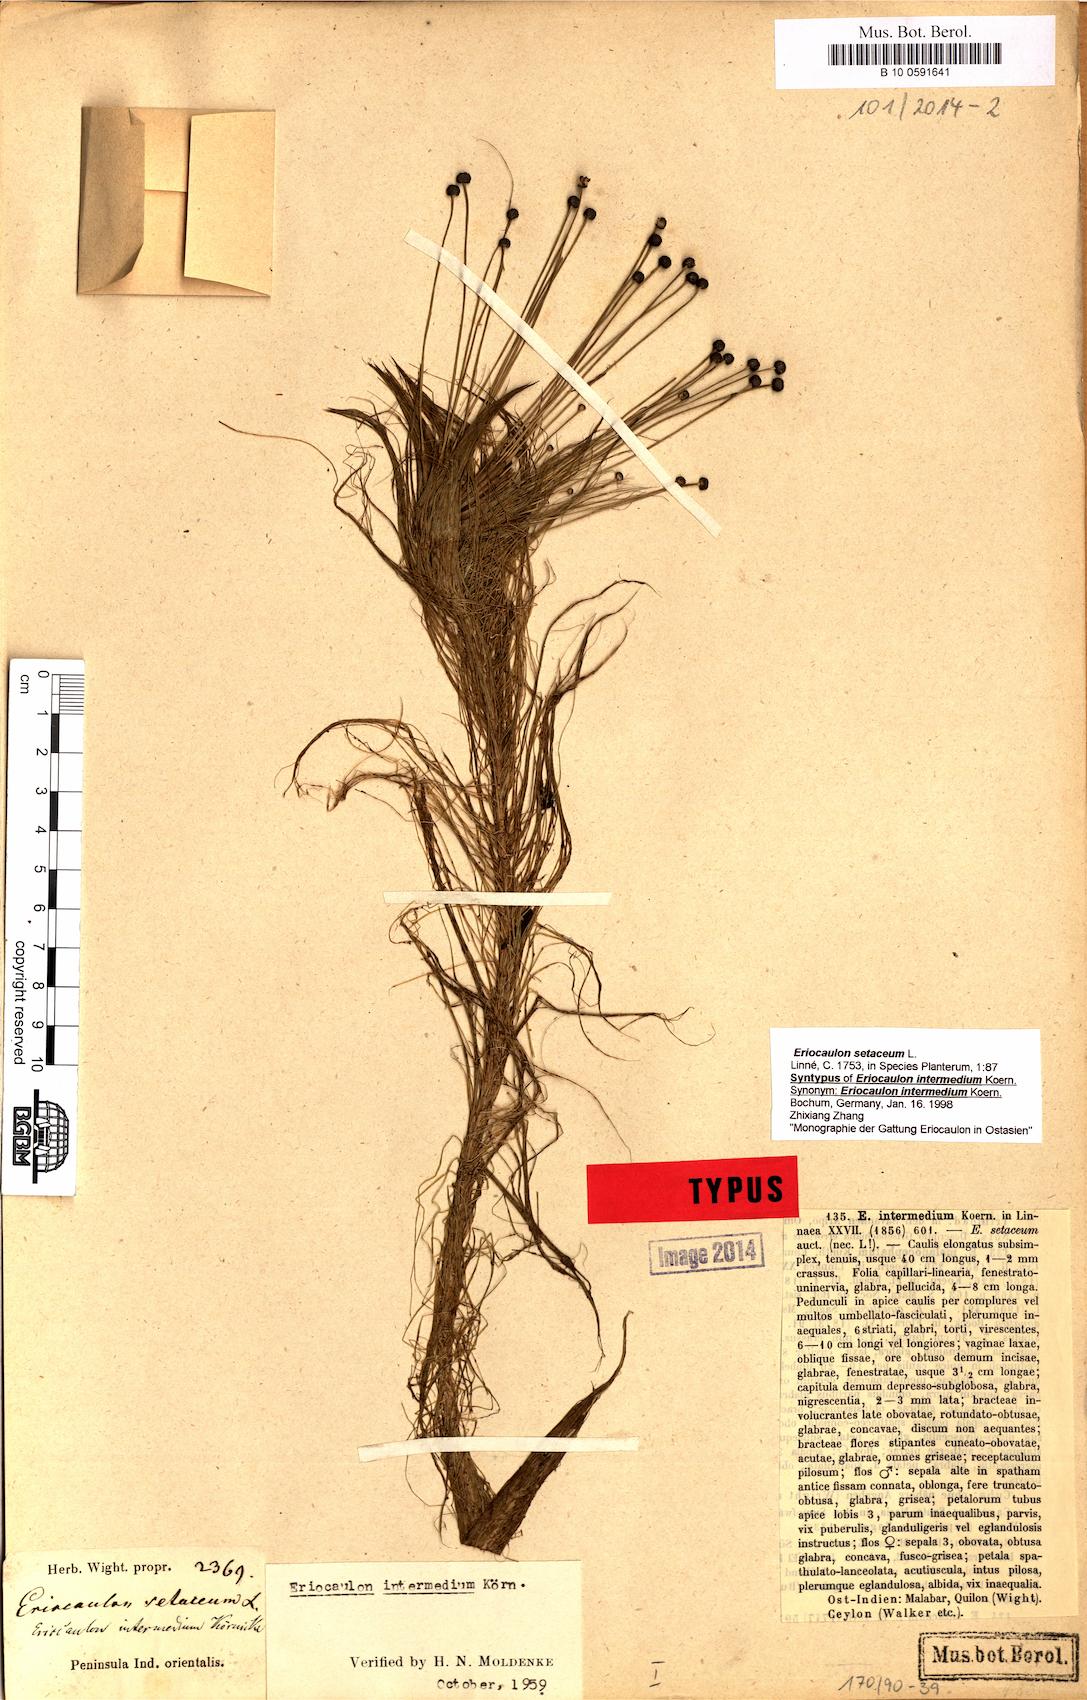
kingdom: Plantae
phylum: Tracheophyta
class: Liliopsida
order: Poales
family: Eriocaulaceae
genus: Eriocaulon
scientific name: Eriocaulon setaceum
